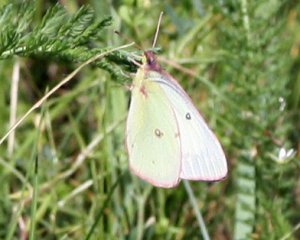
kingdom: Animalia
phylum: Arthropoda
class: Insecta
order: Lepidoptera
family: Pieridae
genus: Colias
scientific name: Colias philodice
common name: Clouded Sulphur
